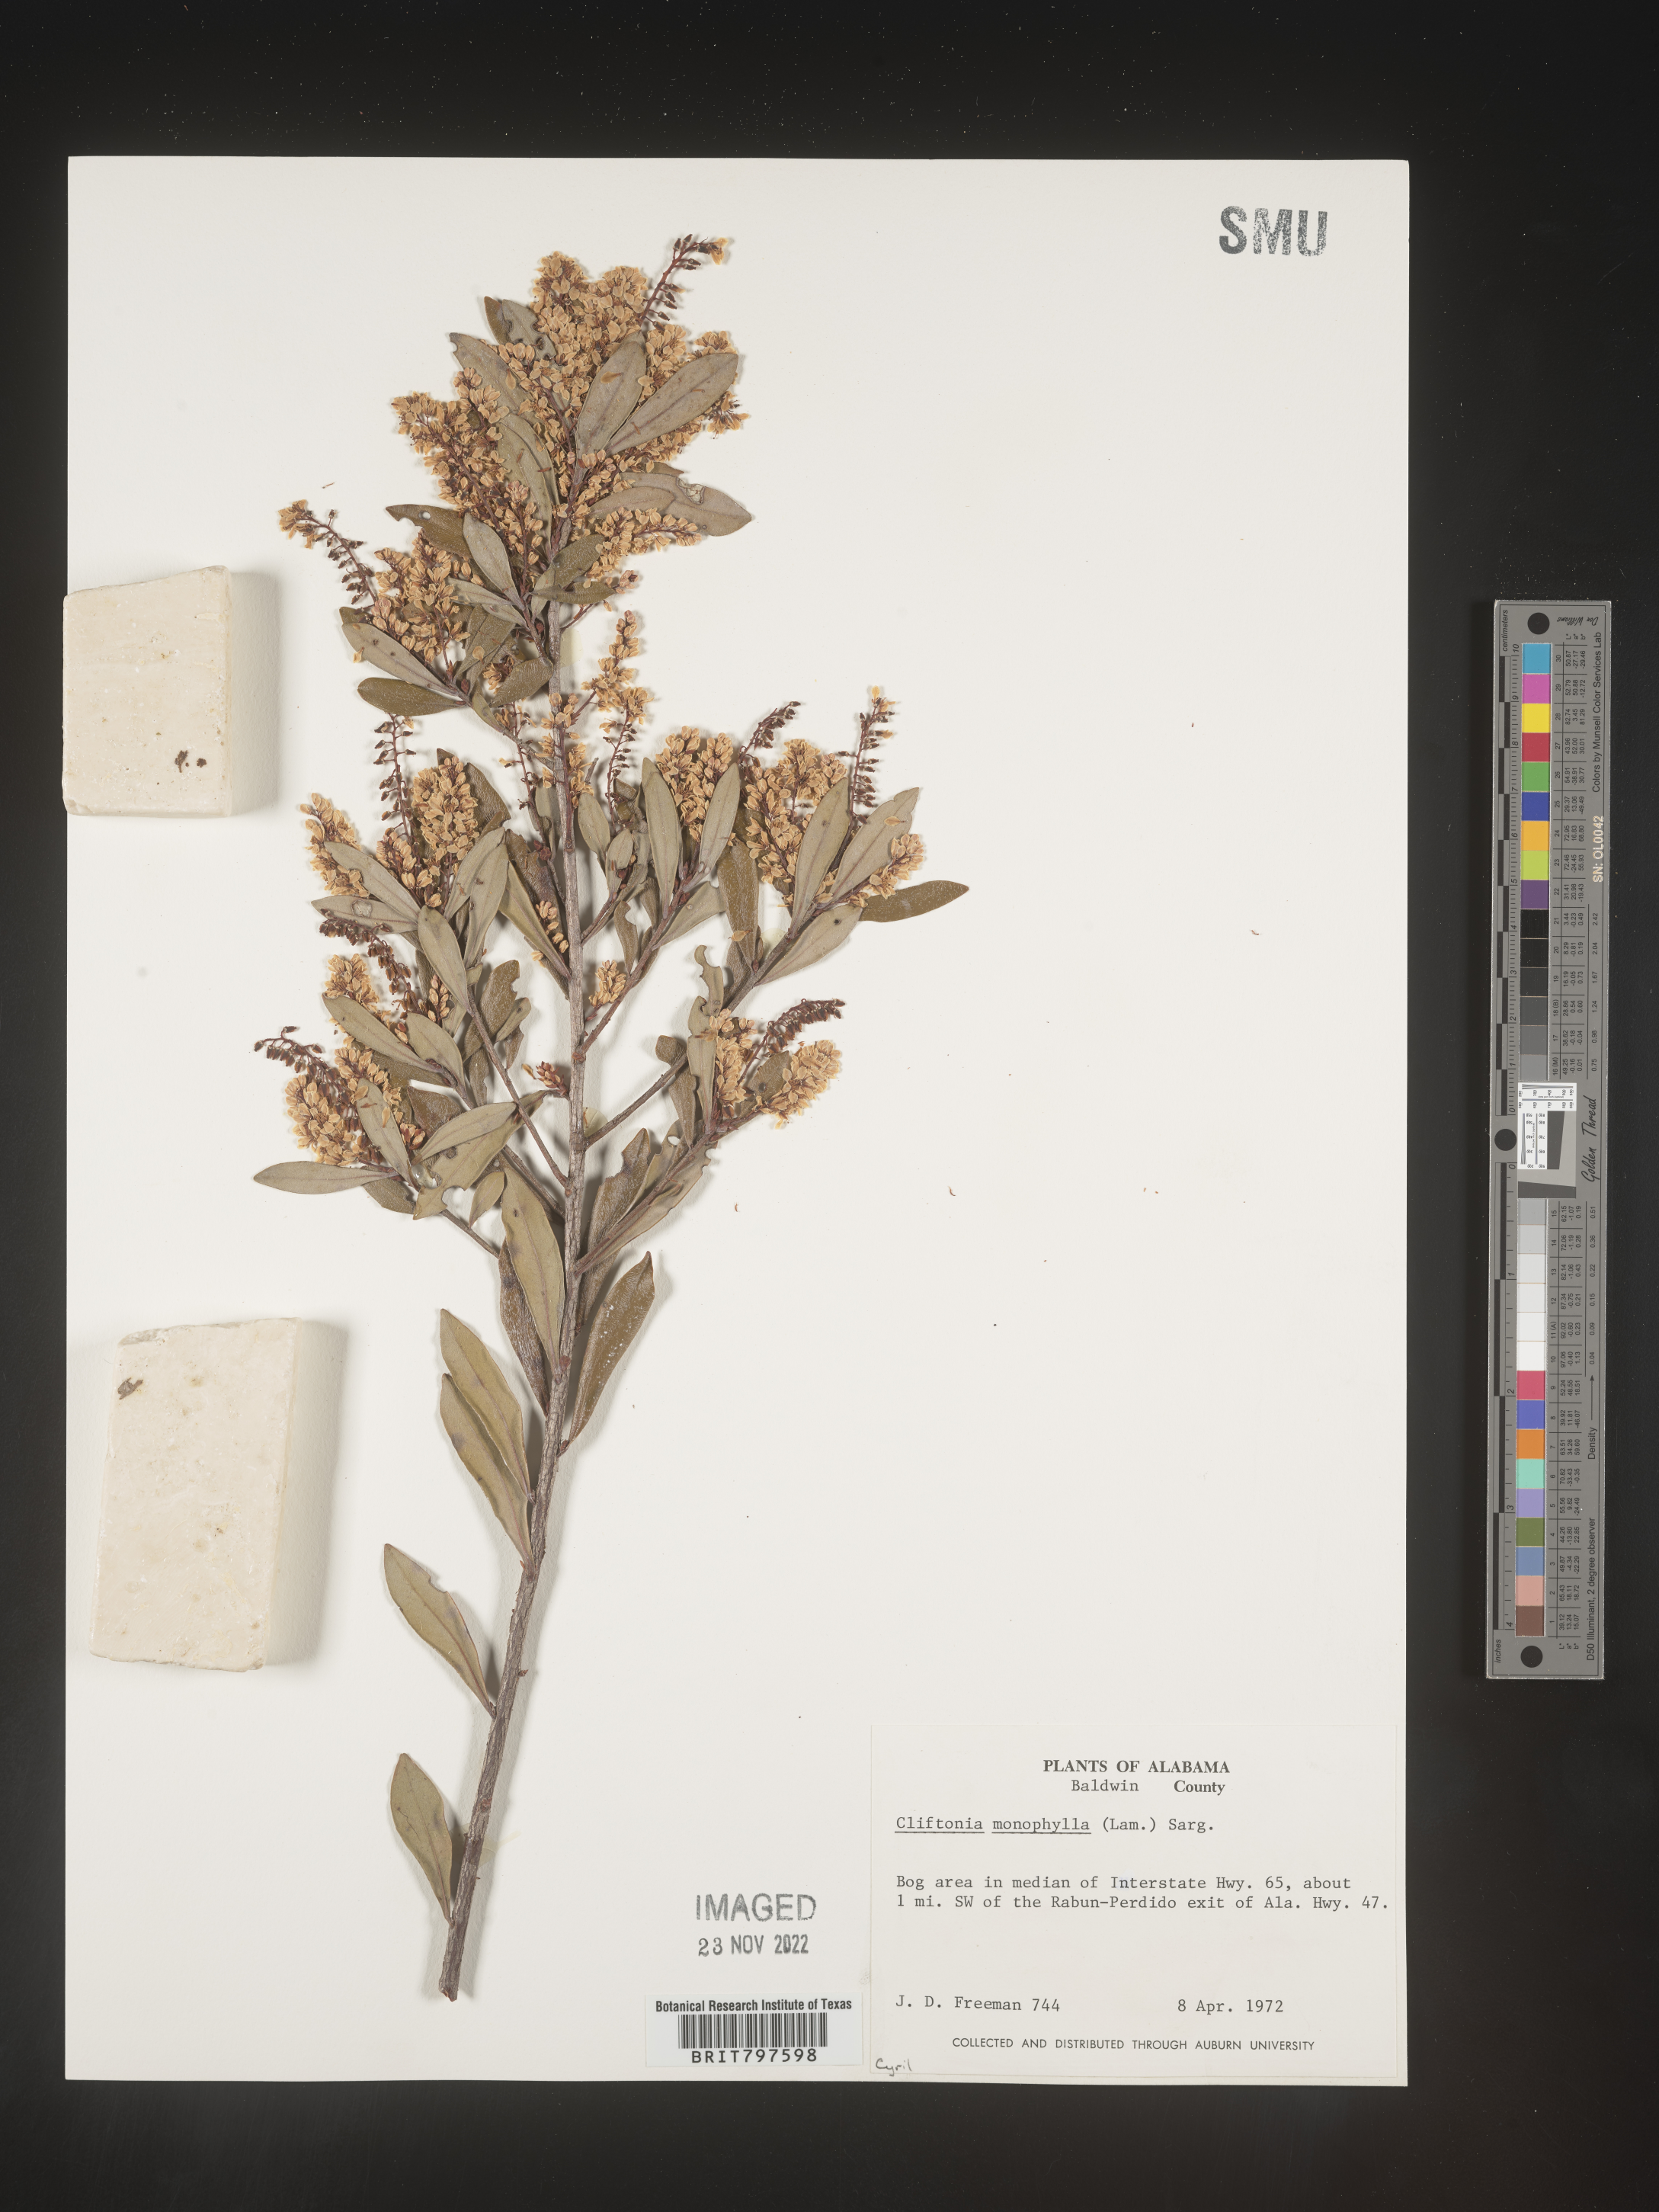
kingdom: Plantae
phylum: Tracheophyta
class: Magnoliopsida
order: Ericales
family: Cyrillaceae
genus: Cliftonia
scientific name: Cliftonia monophylla
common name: Titi
